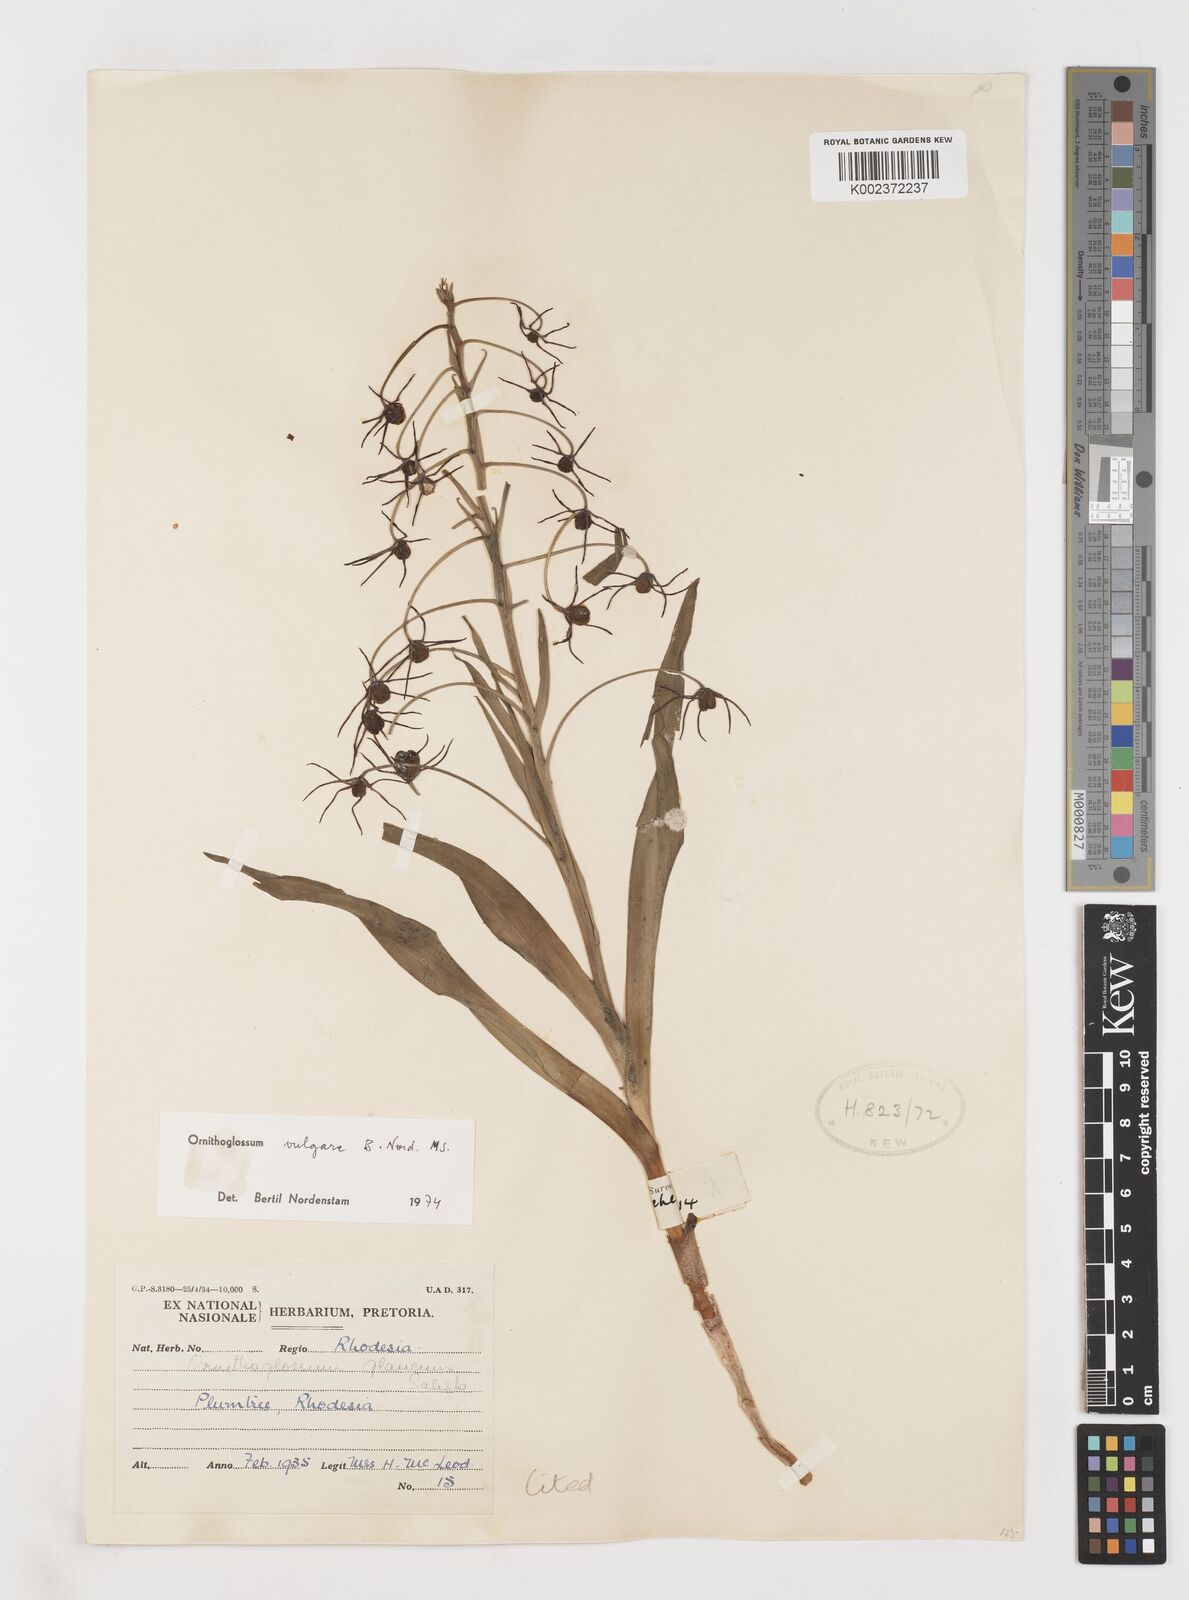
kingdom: Plantae
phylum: Tracheophyta
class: Liliopsida
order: Liliales
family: Colchicaceae
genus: Ornithoglossum
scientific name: Ornithoglossum vulgare
